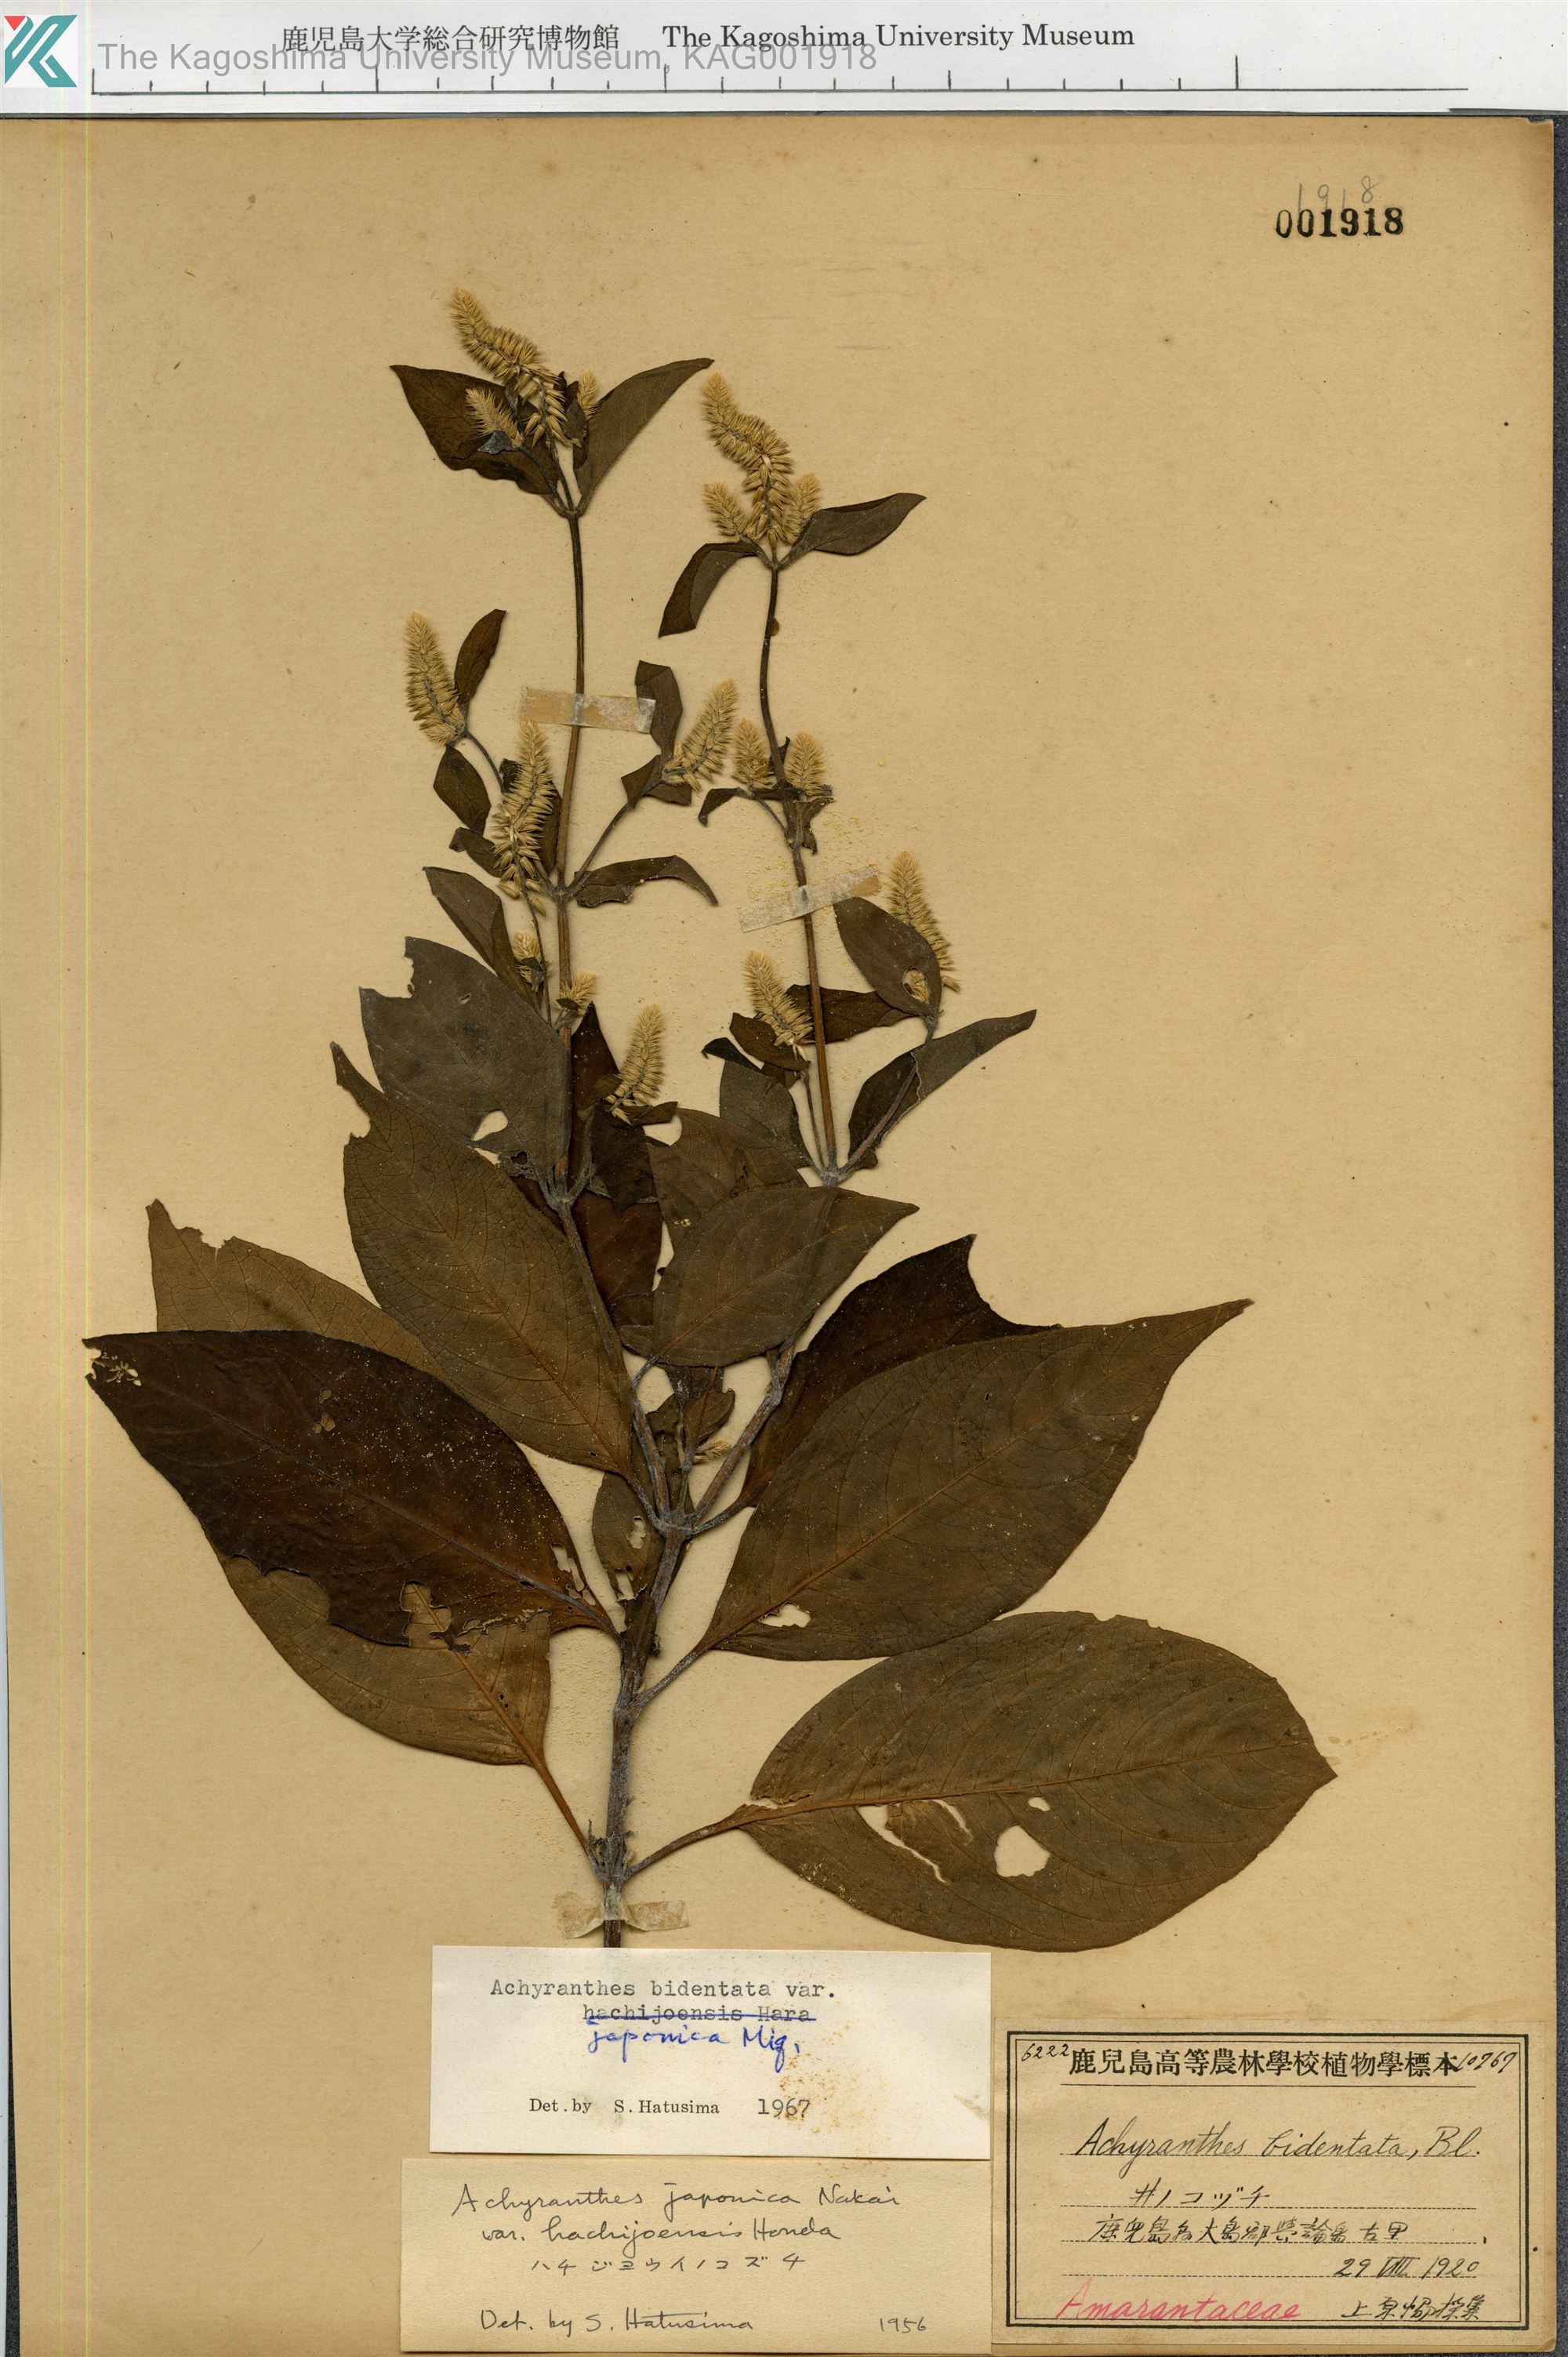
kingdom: Plantae
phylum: Tracheophyta
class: Magnoliopsida
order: Caryophyllales
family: Amaranthaceae
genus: Achyranthes
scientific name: Achyranthes bidentata
